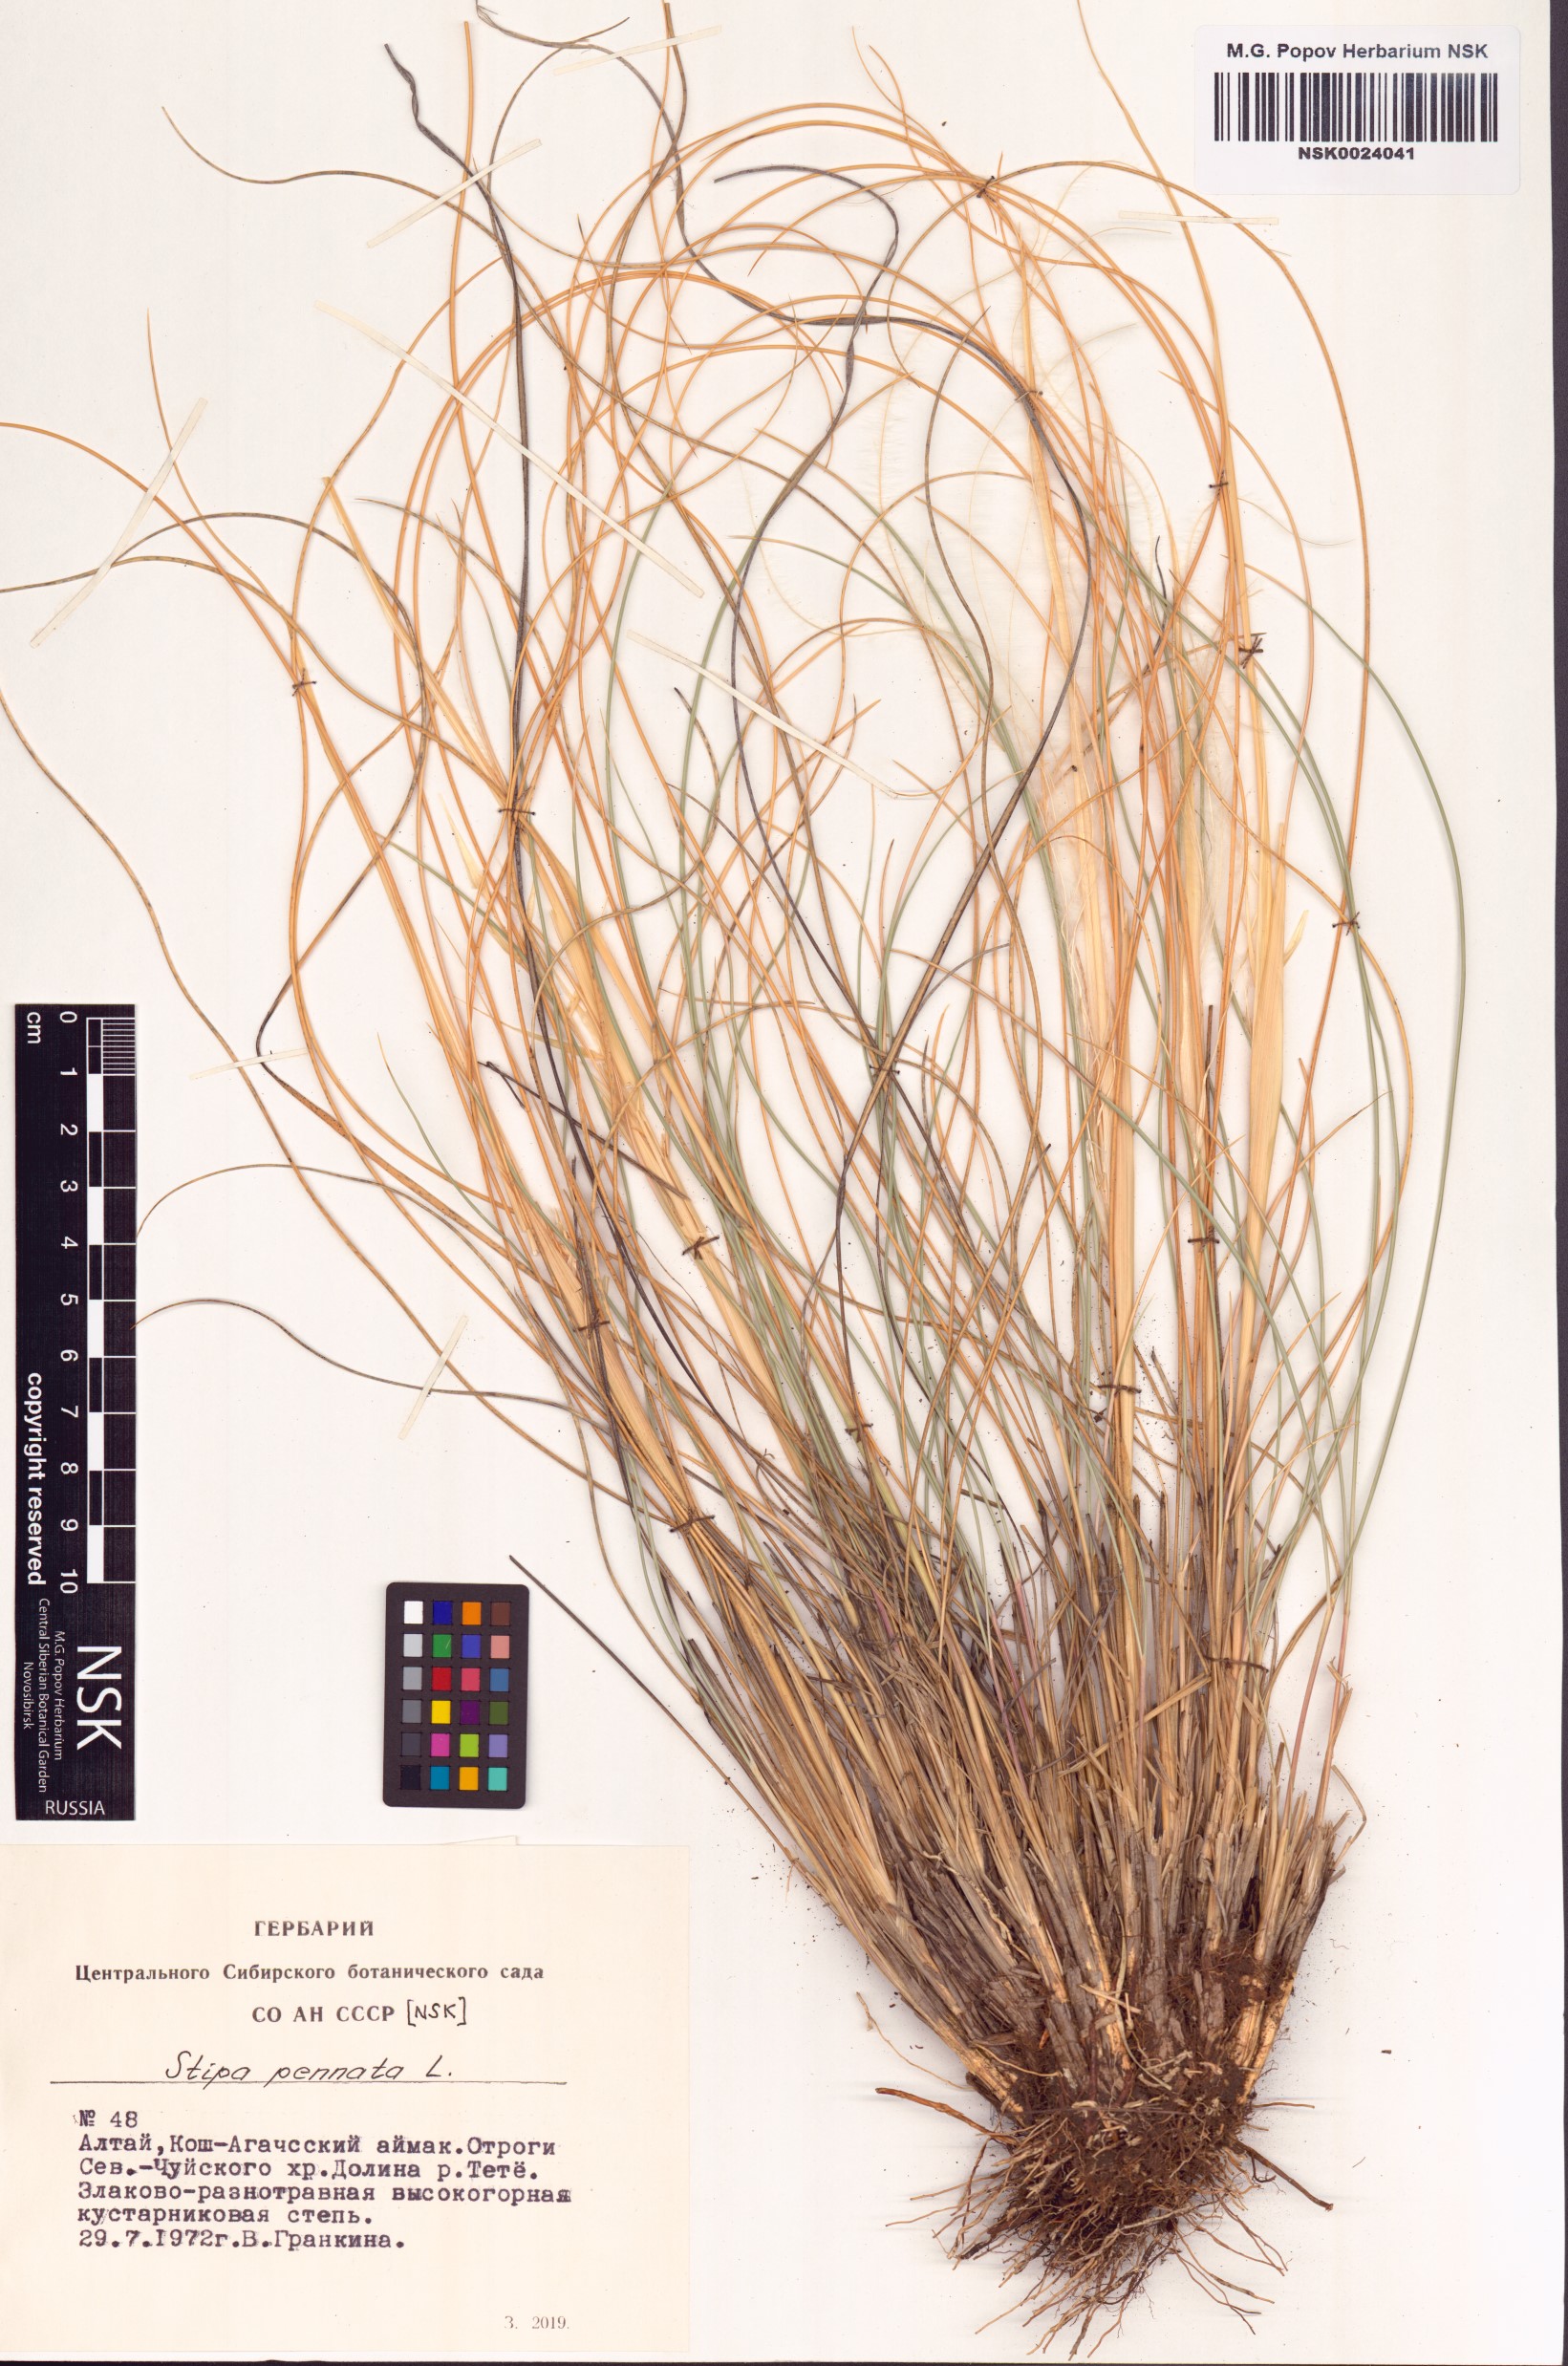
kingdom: Plantae
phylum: Tracheophyta
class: Liliopsida
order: Poales
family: Poaceae
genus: Stipa
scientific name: Stipa pennata
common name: European feather grass
